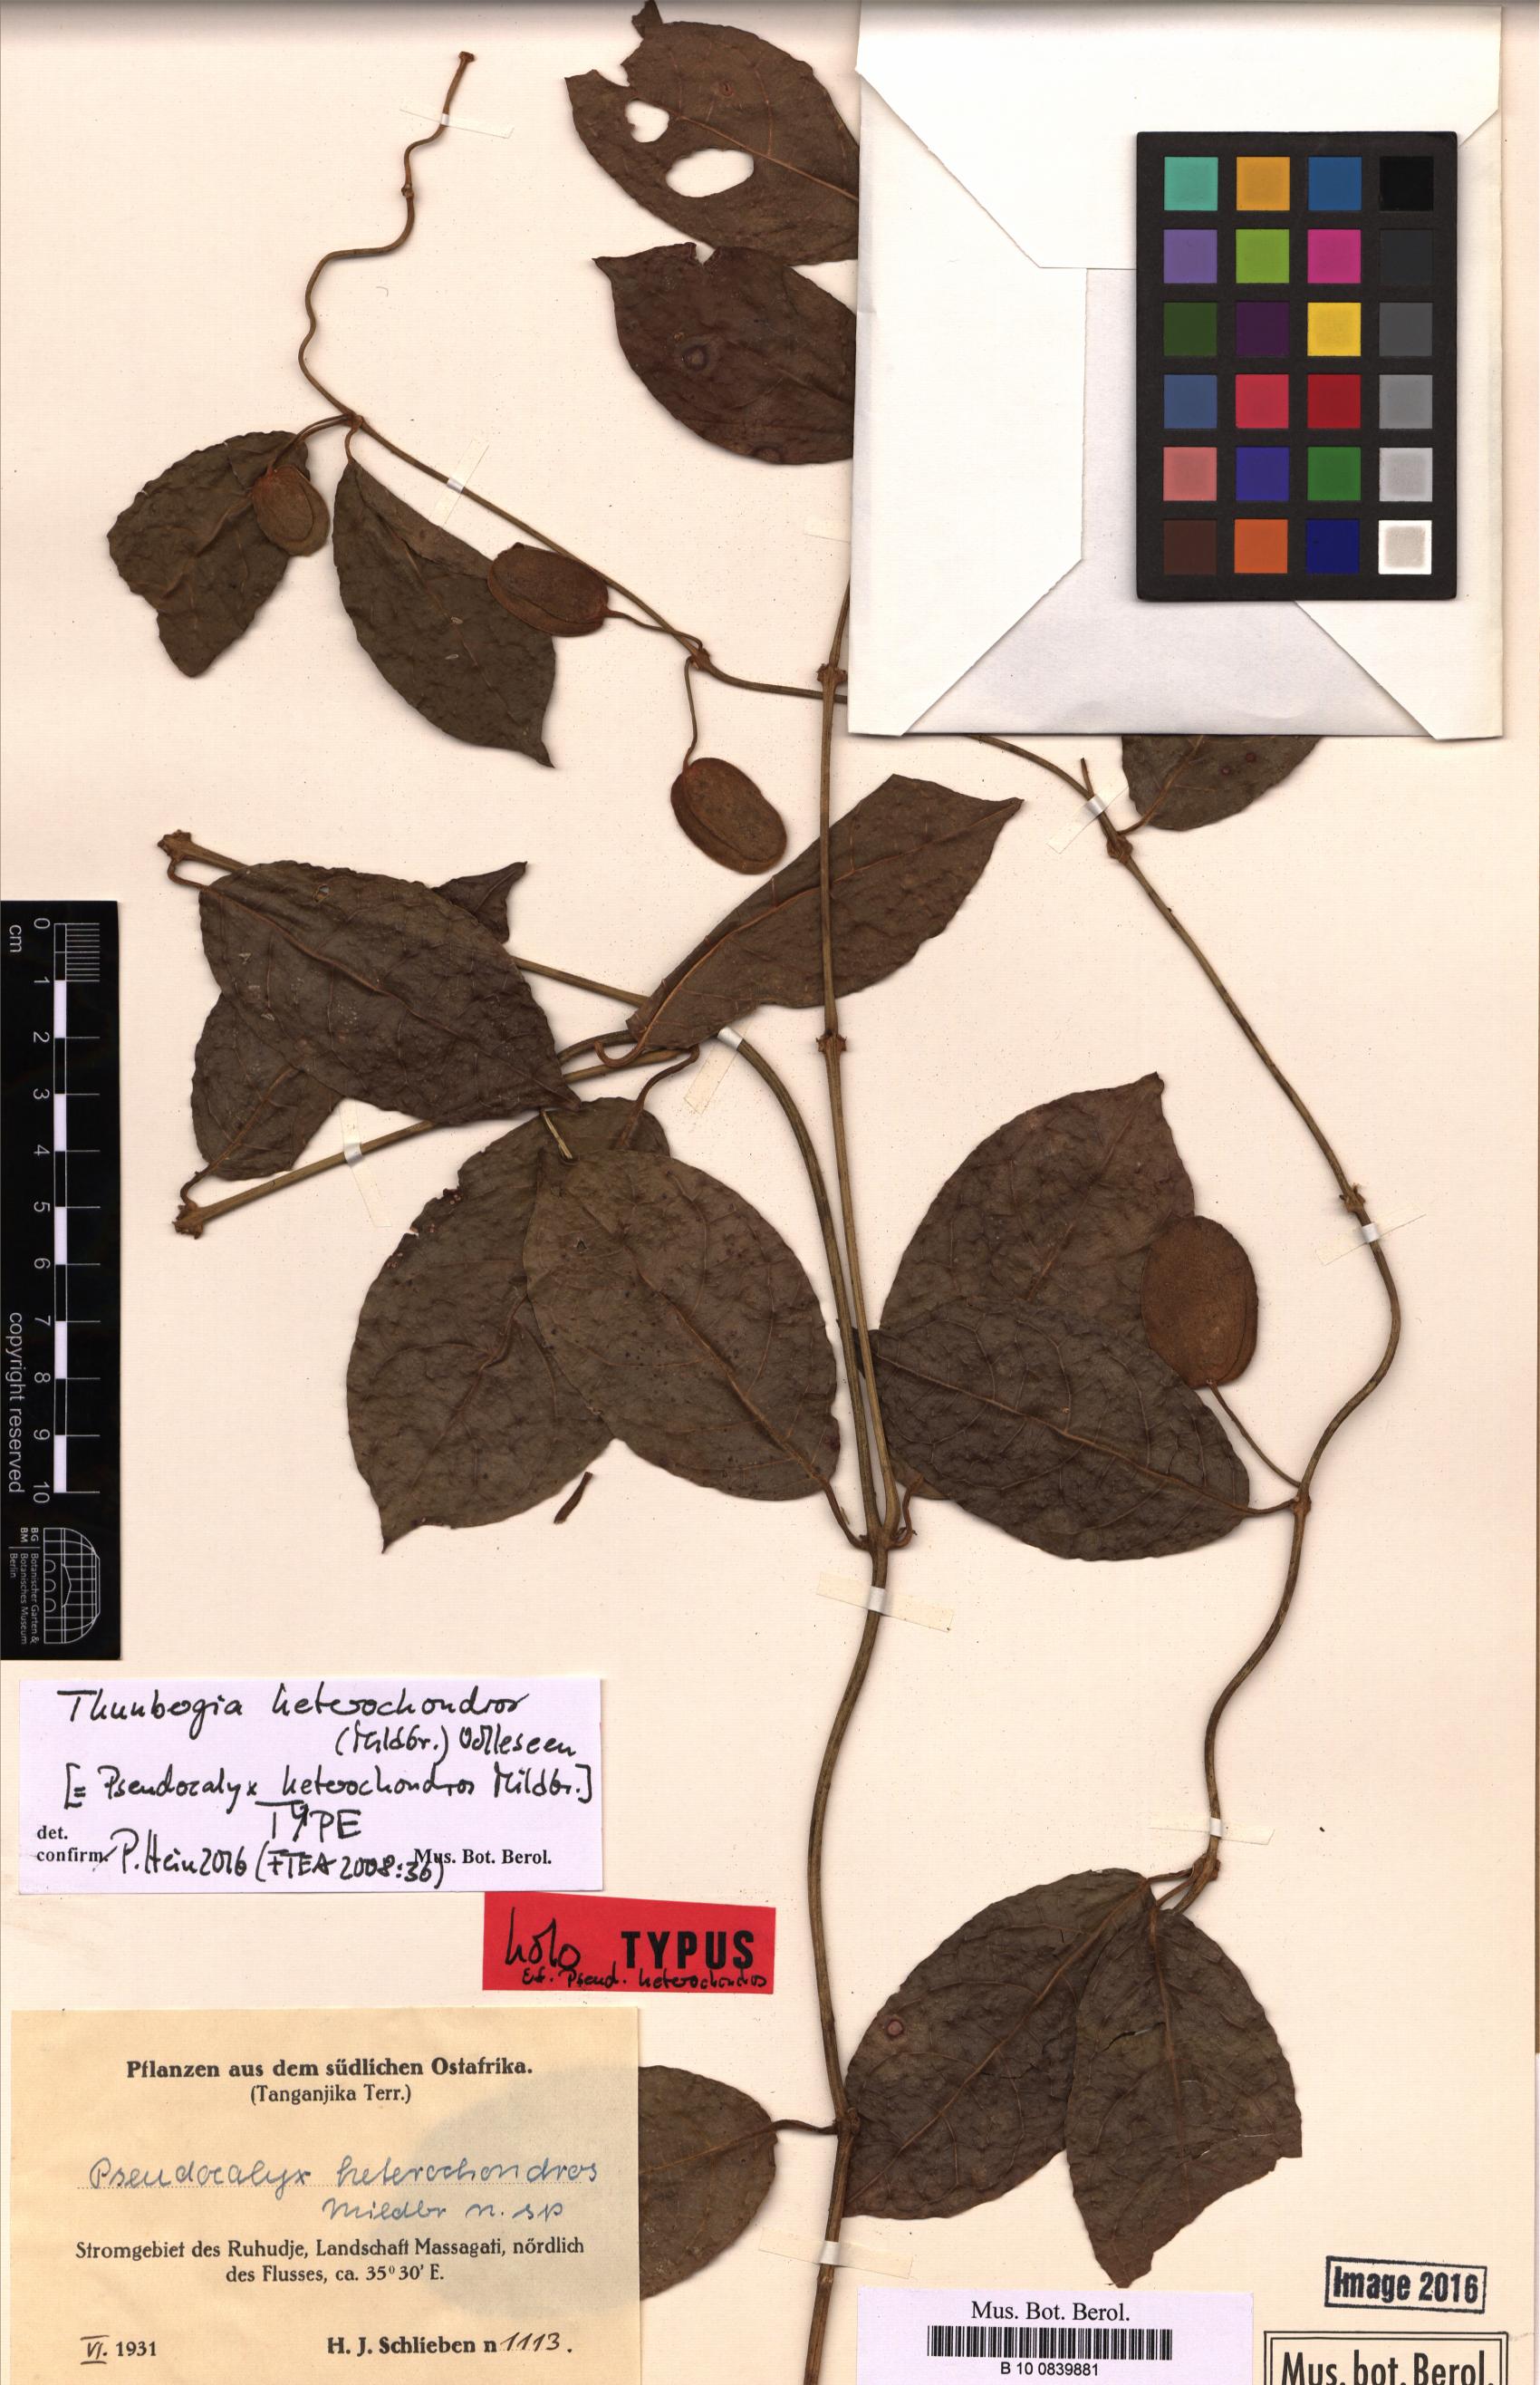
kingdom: Plantae
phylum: Tracheophyta
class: Magnoliopsida
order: Lamiales
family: Acanthaceae
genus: Thunbergia
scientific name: Thunbergia heterochondros
